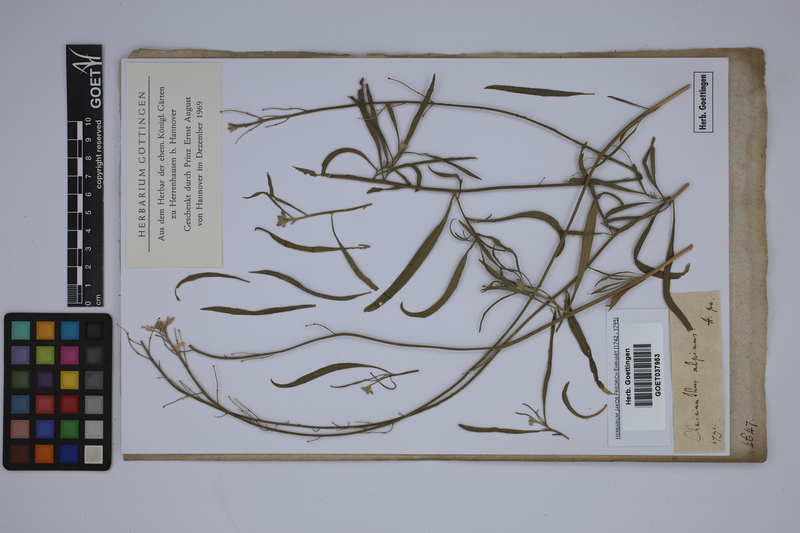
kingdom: Plantae
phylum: Tracheophyta
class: Magnoliopsida
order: Brassicales
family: Brassicaceae
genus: Erysimum
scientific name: Erysimum sylvestre
